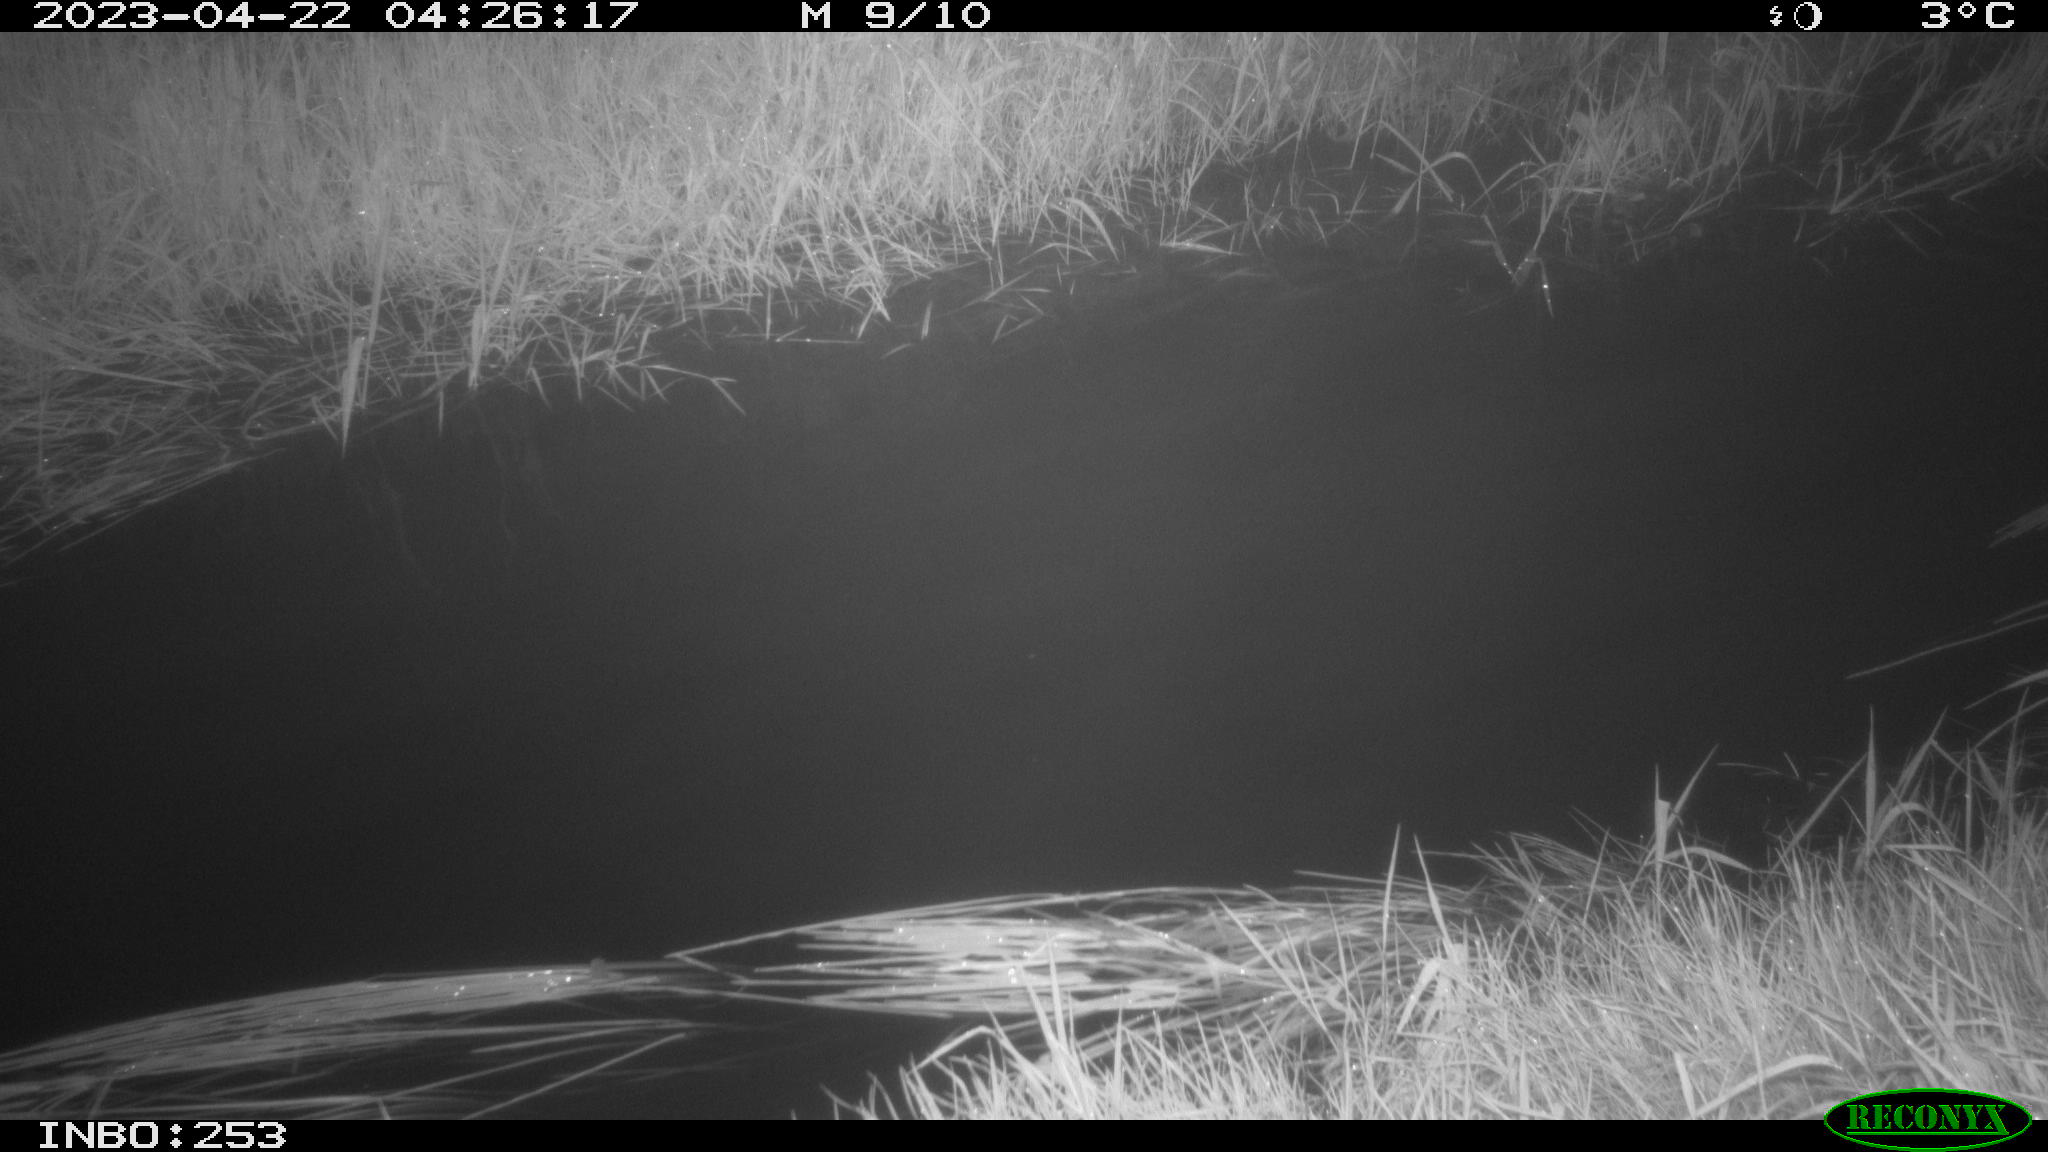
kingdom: Animalia
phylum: Chordata
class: Aves
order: Anseriformes
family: Anatidae
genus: Anas
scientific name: Anas
